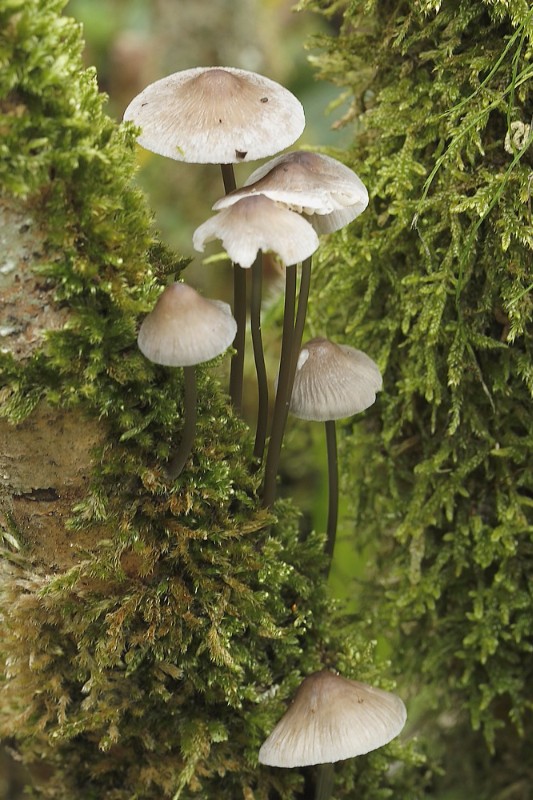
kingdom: Fungi
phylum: Basidiomycota
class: Agaricomycetes
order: Agaricales
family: Mycenaceae
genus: Mycena
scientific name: Mycena polygramma
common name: mangestribet huesvamp
